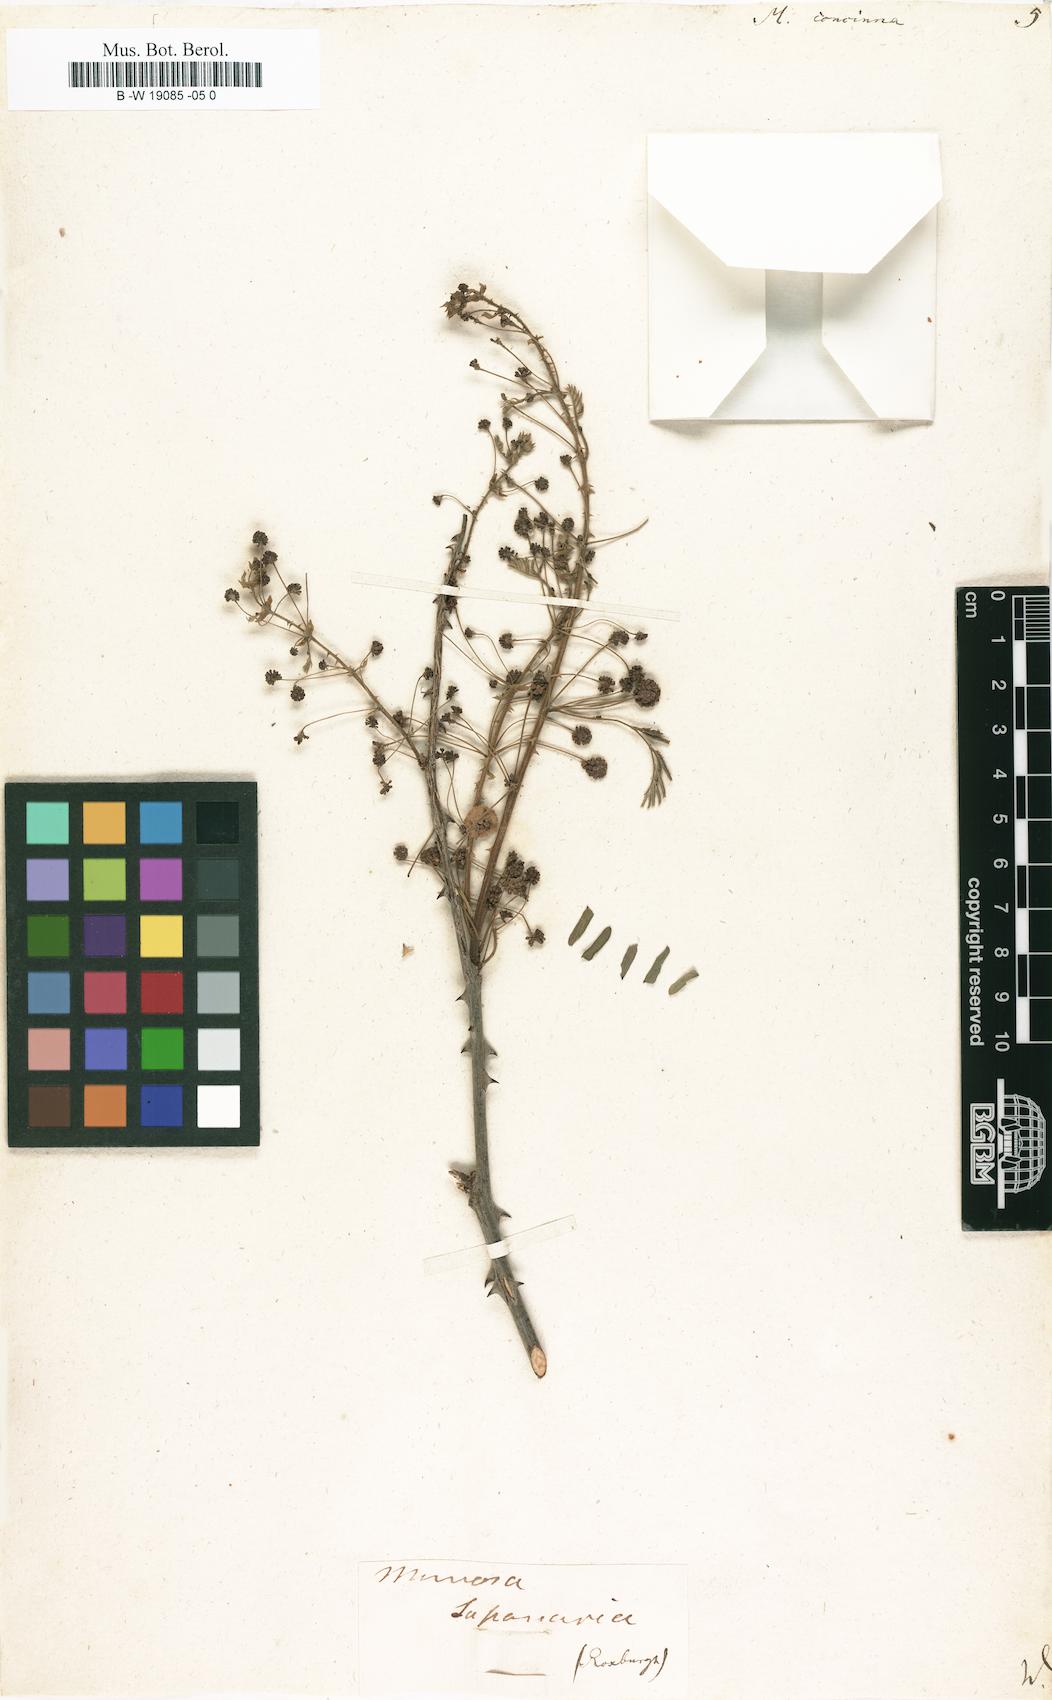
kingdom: Plantae
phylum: Tracheophyta
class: Magnoliopsida
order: Fabales
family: Fabaceae
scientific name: Fabaceae
